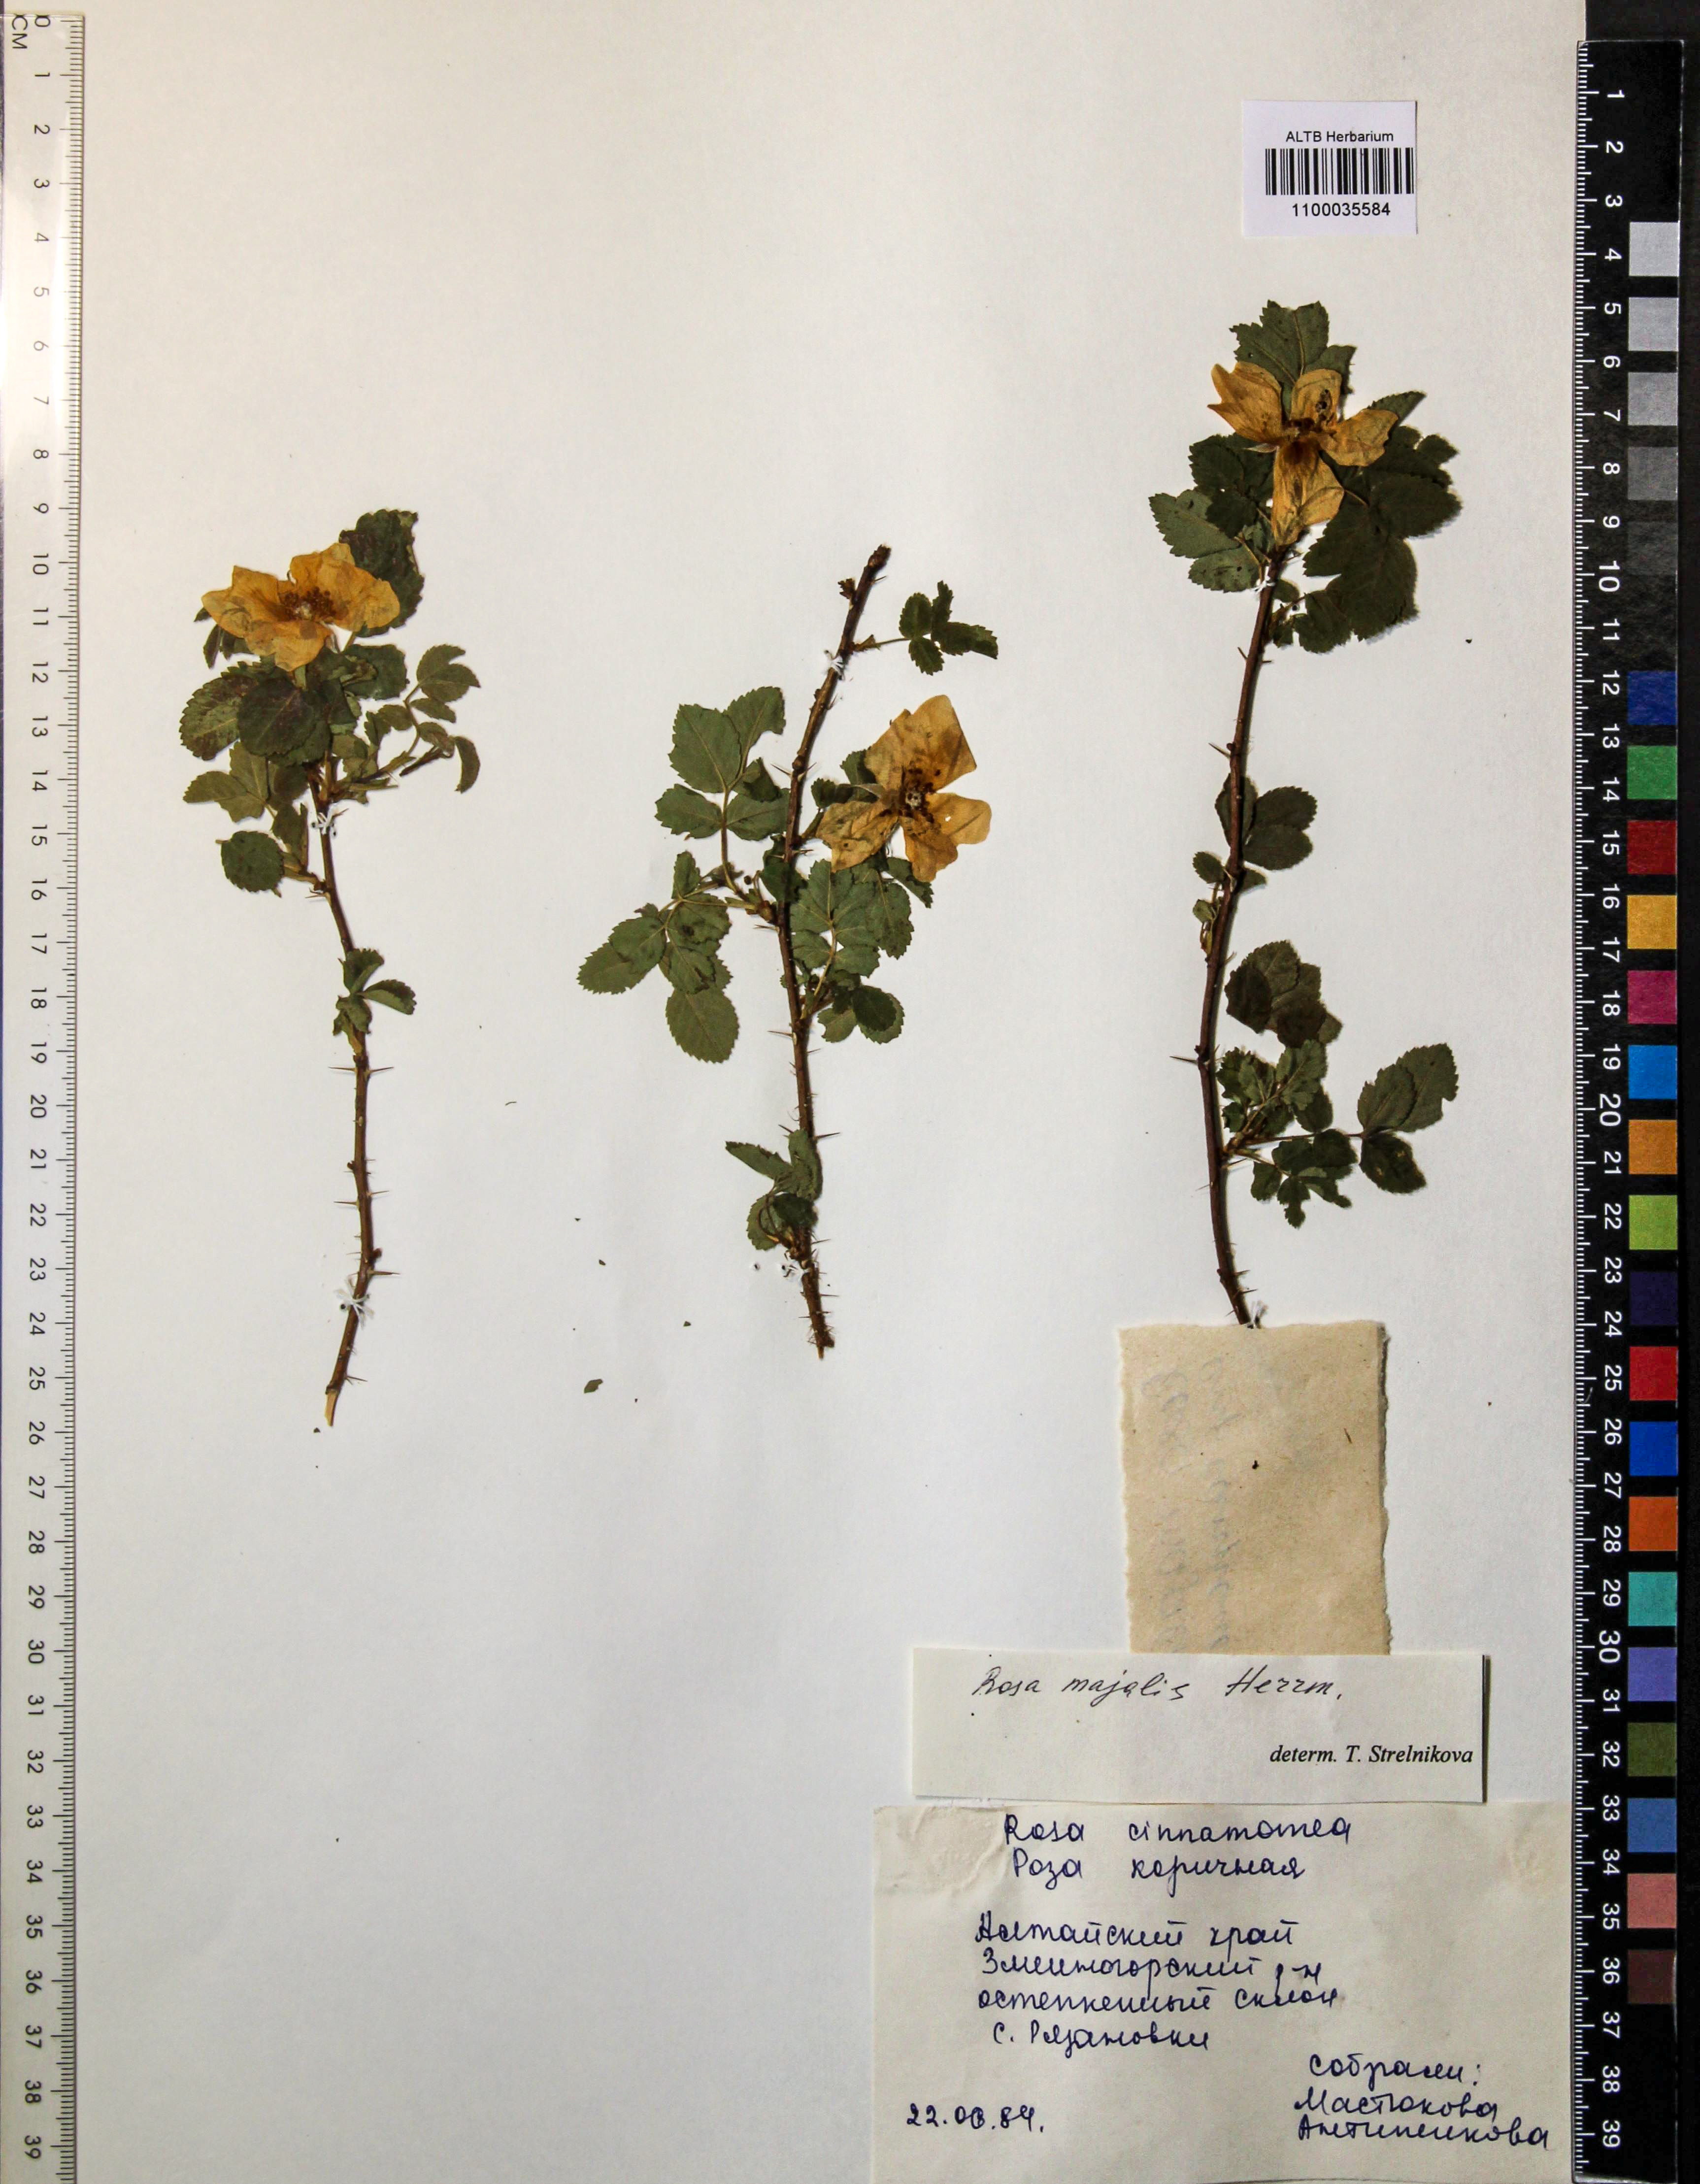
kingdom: Plantae
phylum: Tracheophyta
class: Magnoliopsida
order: Rosales
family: Rosaceae
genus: Rosa
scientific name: Rosa majalis
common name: Cinnamon rose
